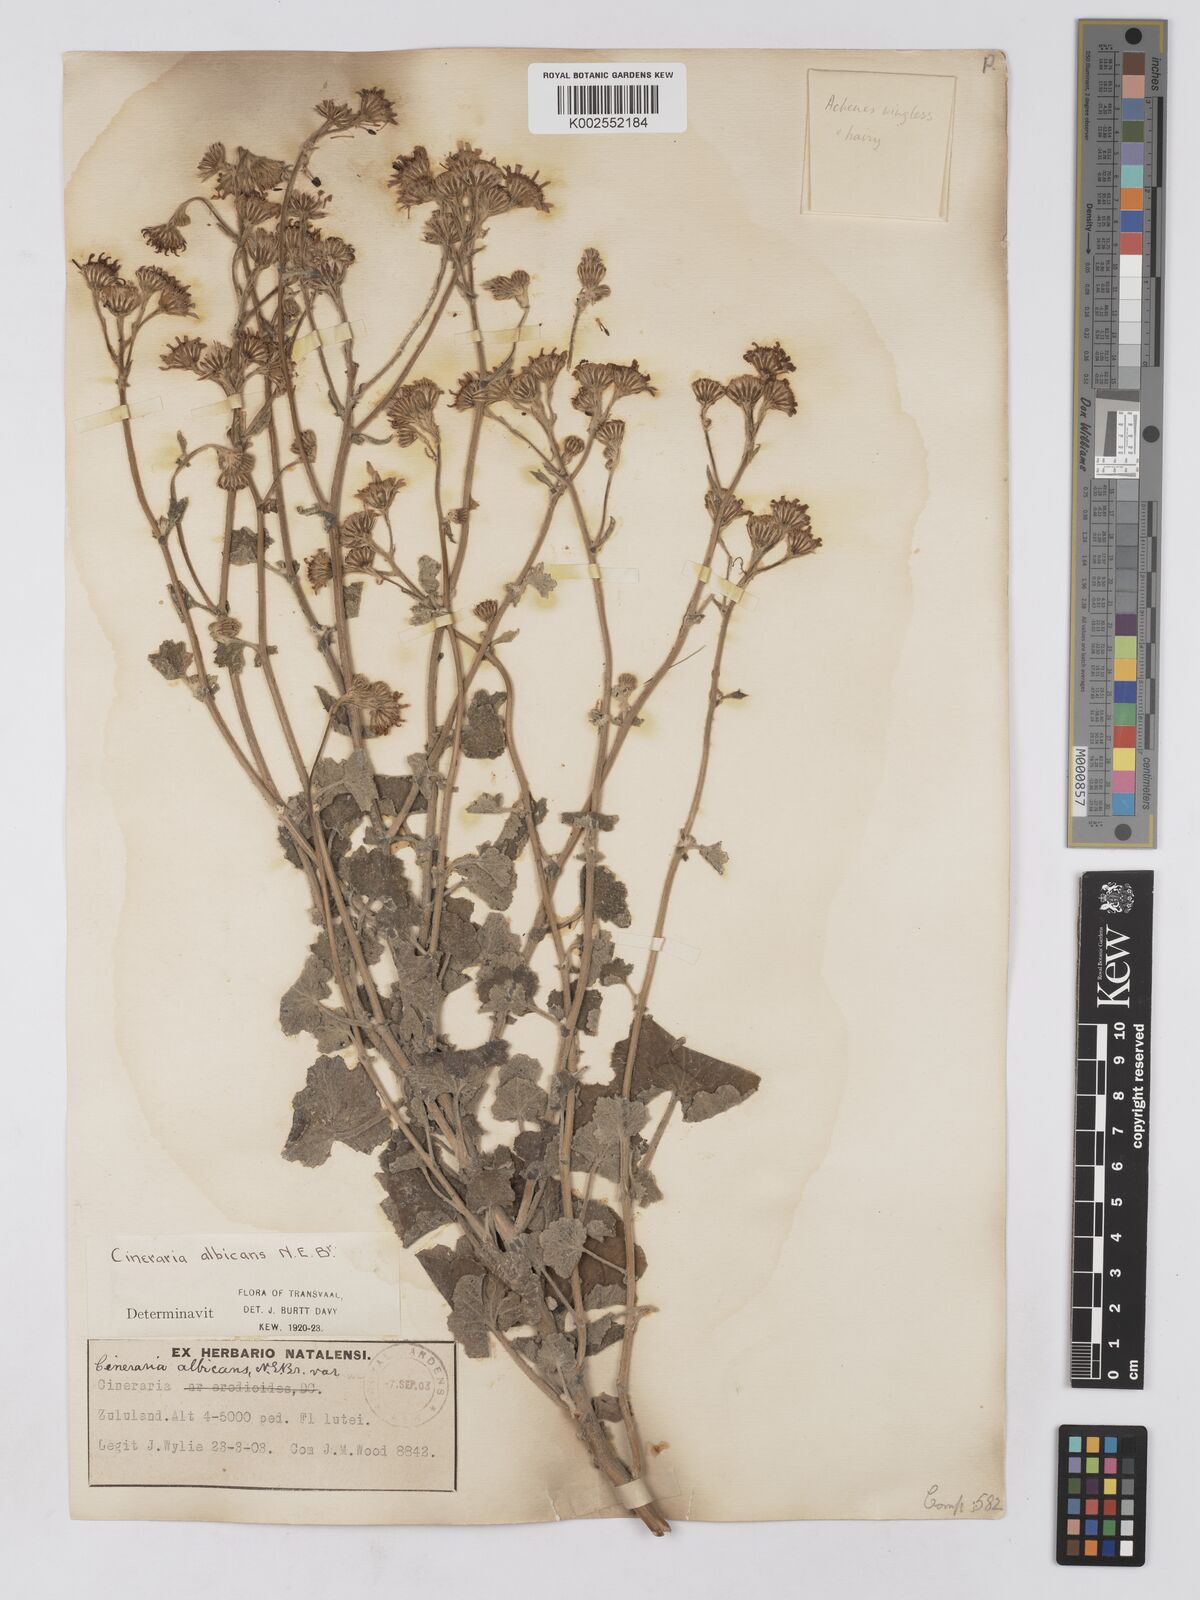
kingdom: Plantae
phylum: Tracheophyta
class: Magnoliopsida
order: Asterales
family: Asteraceae
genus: Cineraria
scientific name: Cineraria albicans
